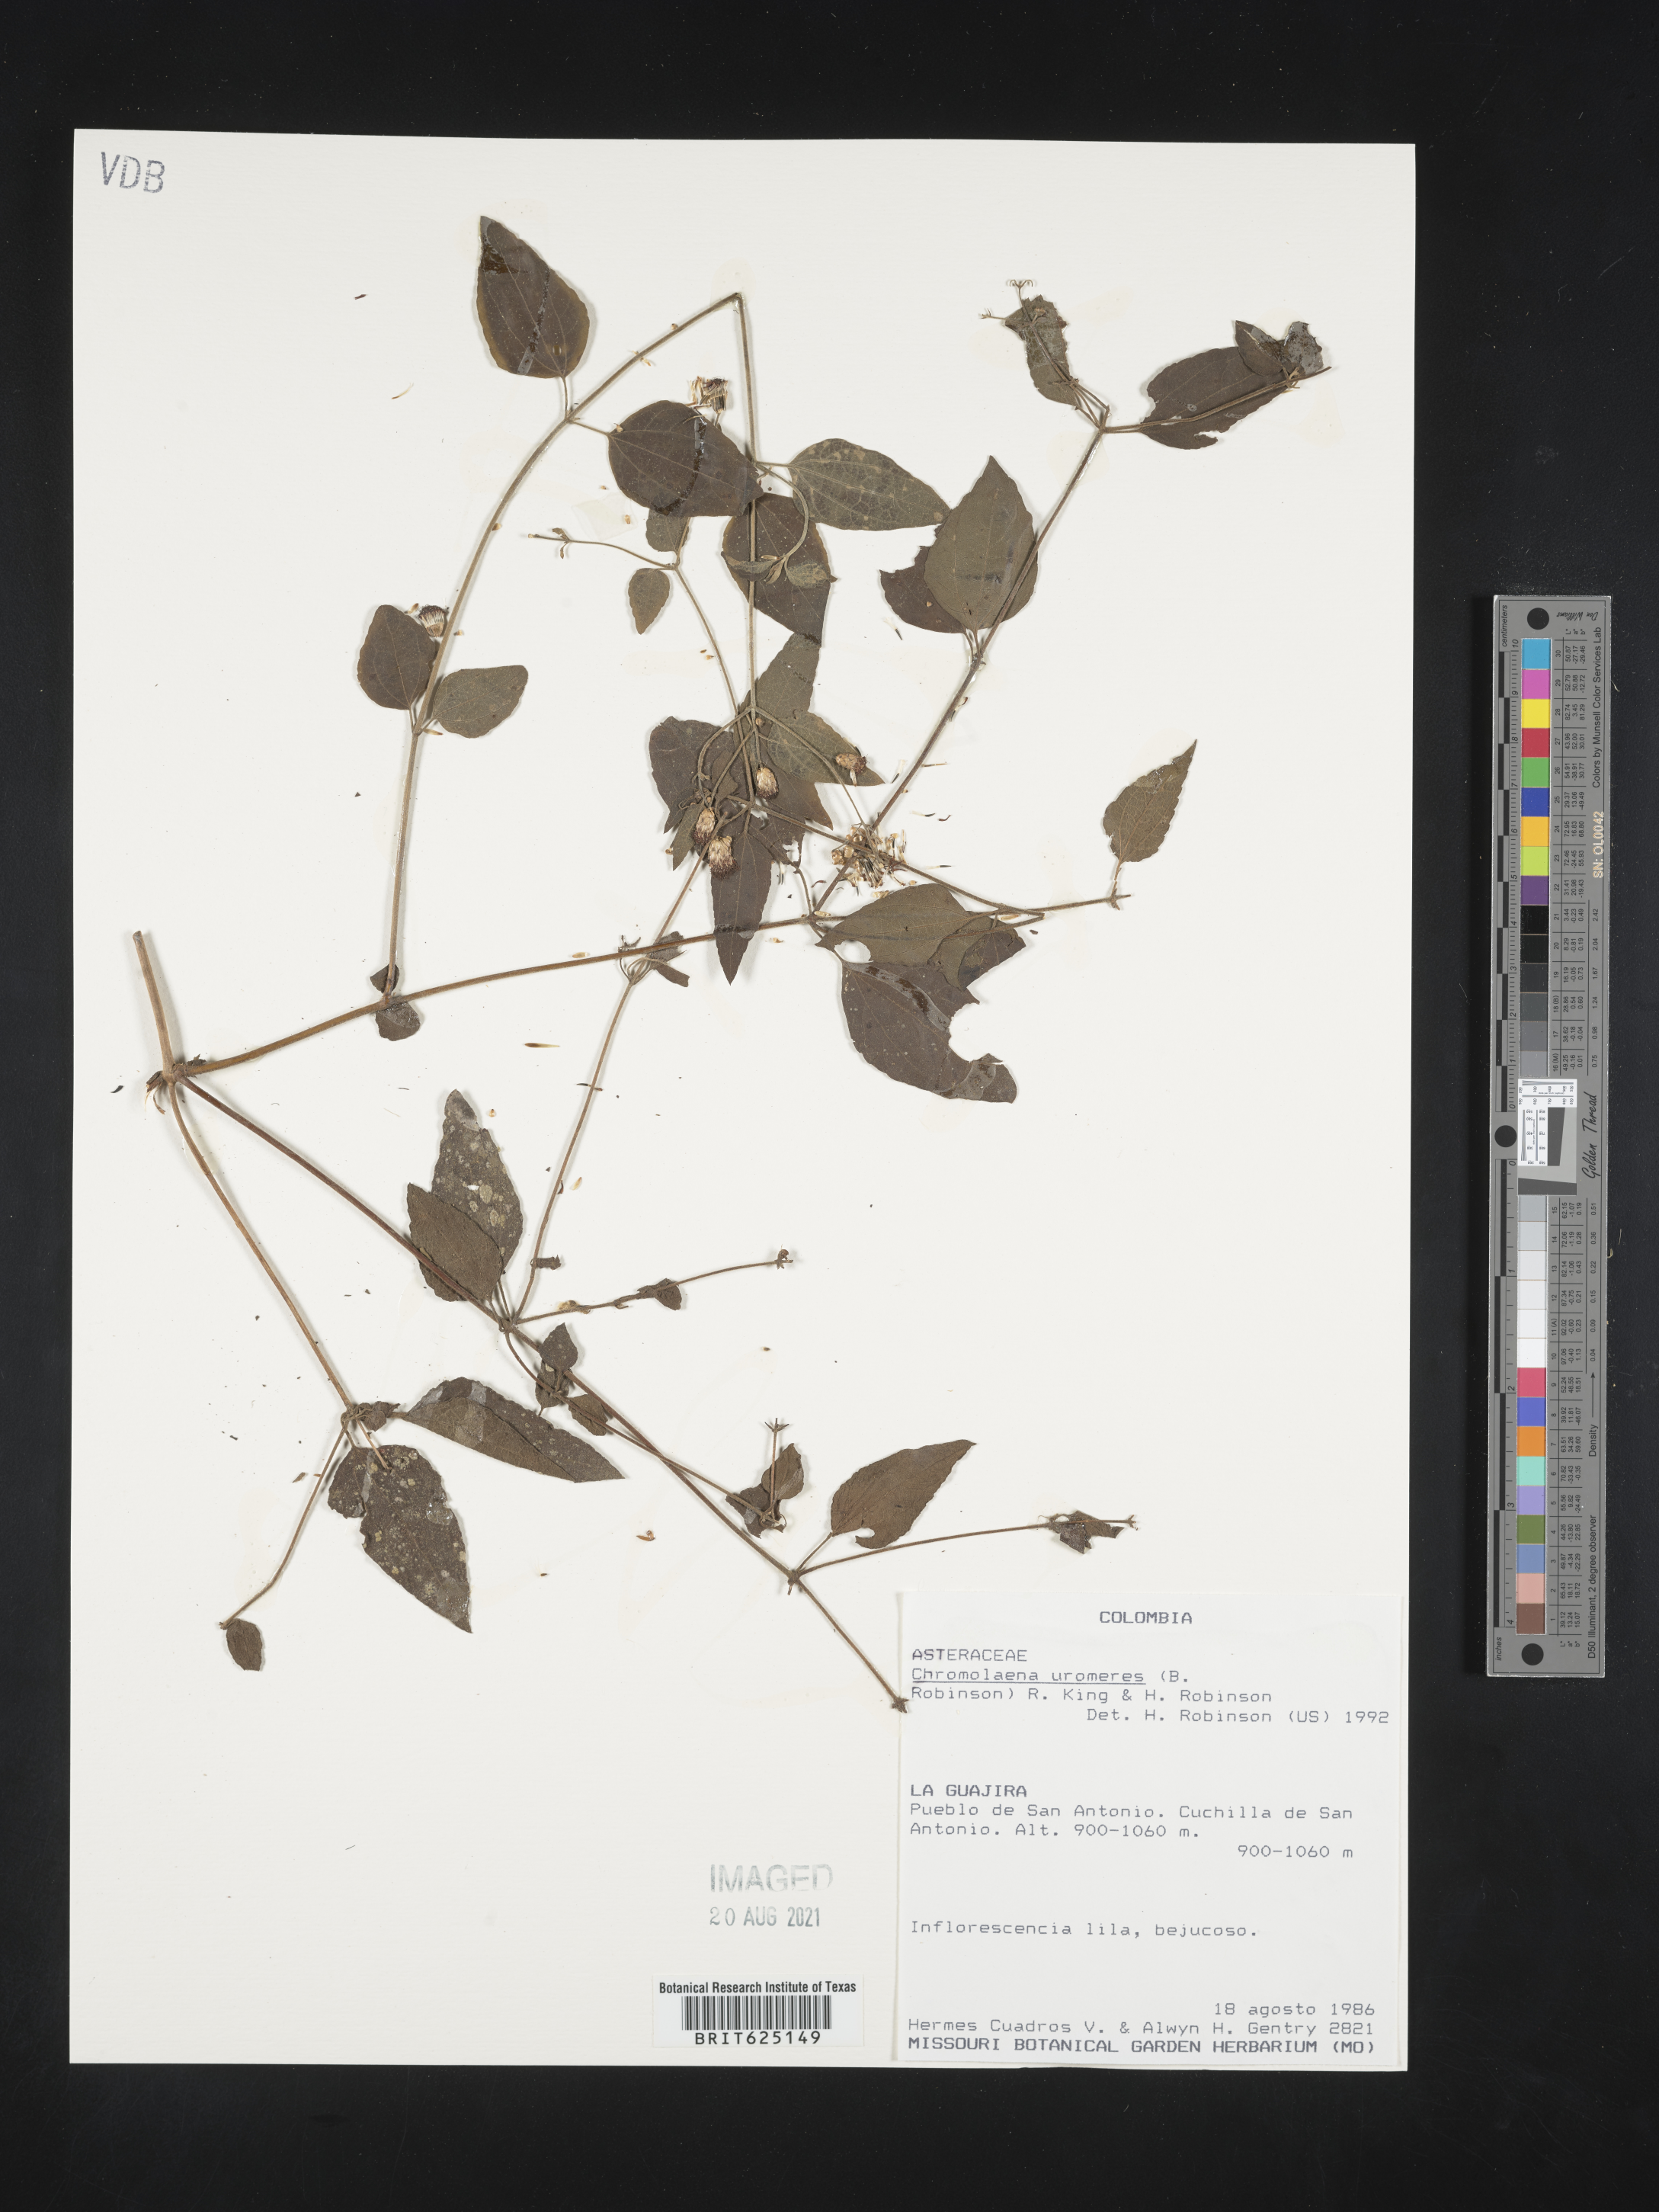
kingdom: Plantae
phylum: Tracheophyta
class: Magnoliopsida
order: Asterales
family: Asteraceae
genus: Chromolaena
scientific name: Chromolaena uromeres
